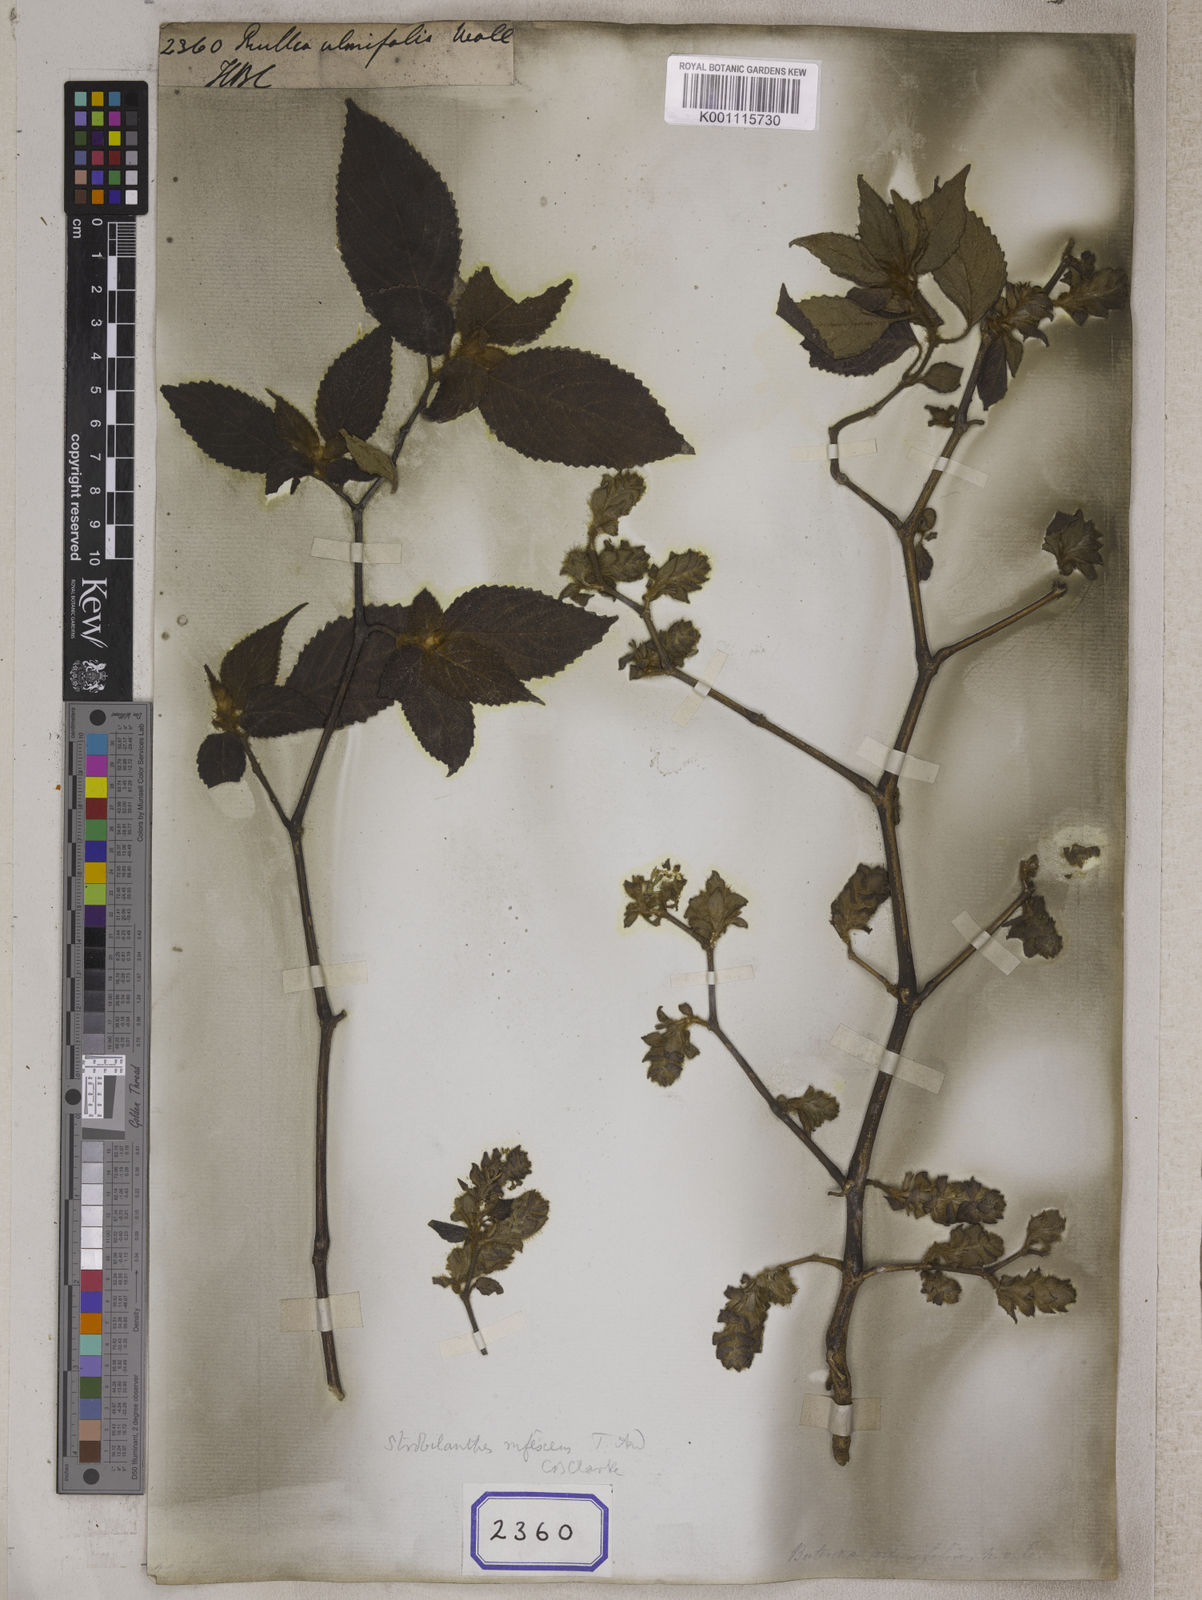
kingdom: Plantae
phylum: Tracheophyta
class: Magnoliopsida
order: Lamiales
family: Acanthaceae
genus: Strobilanthes
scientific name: Strobilanthes rufescens
